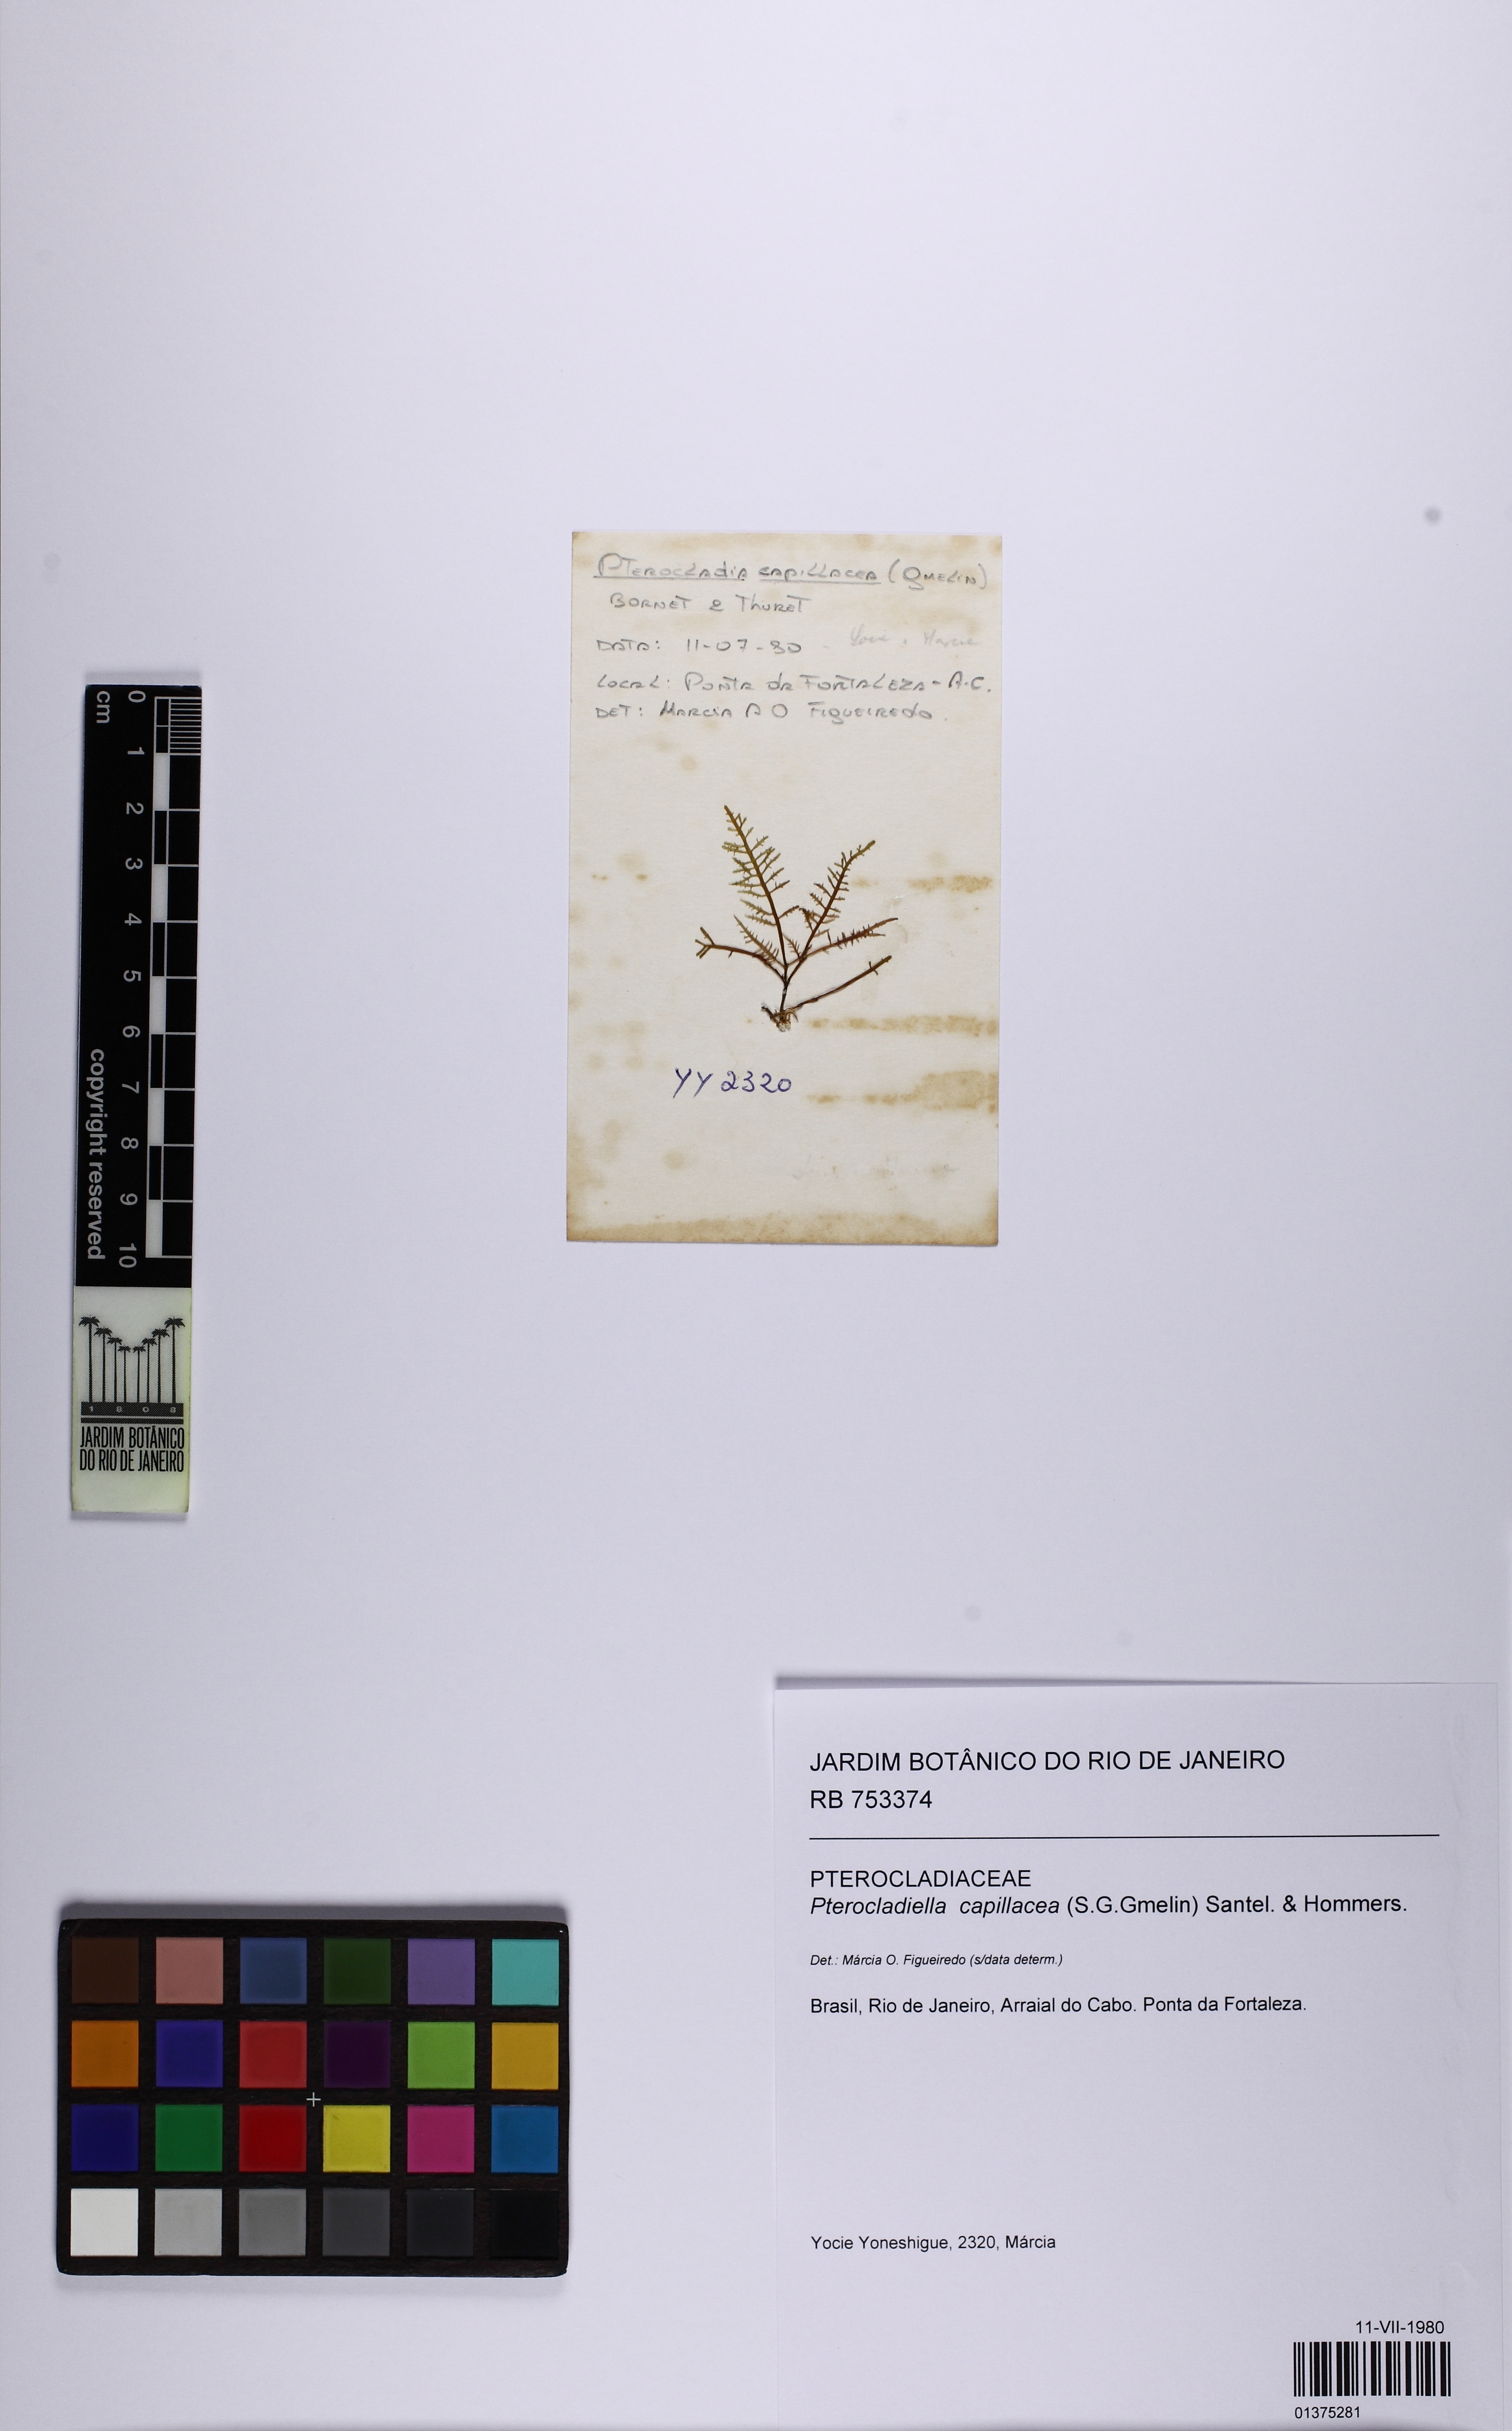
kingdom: Plantae
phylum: Rhodophyta
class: Florideophyceae
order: Gelidiales
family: Pterocladiaceae
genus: Pterocladiella
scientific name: Pterocladiella capillacea
